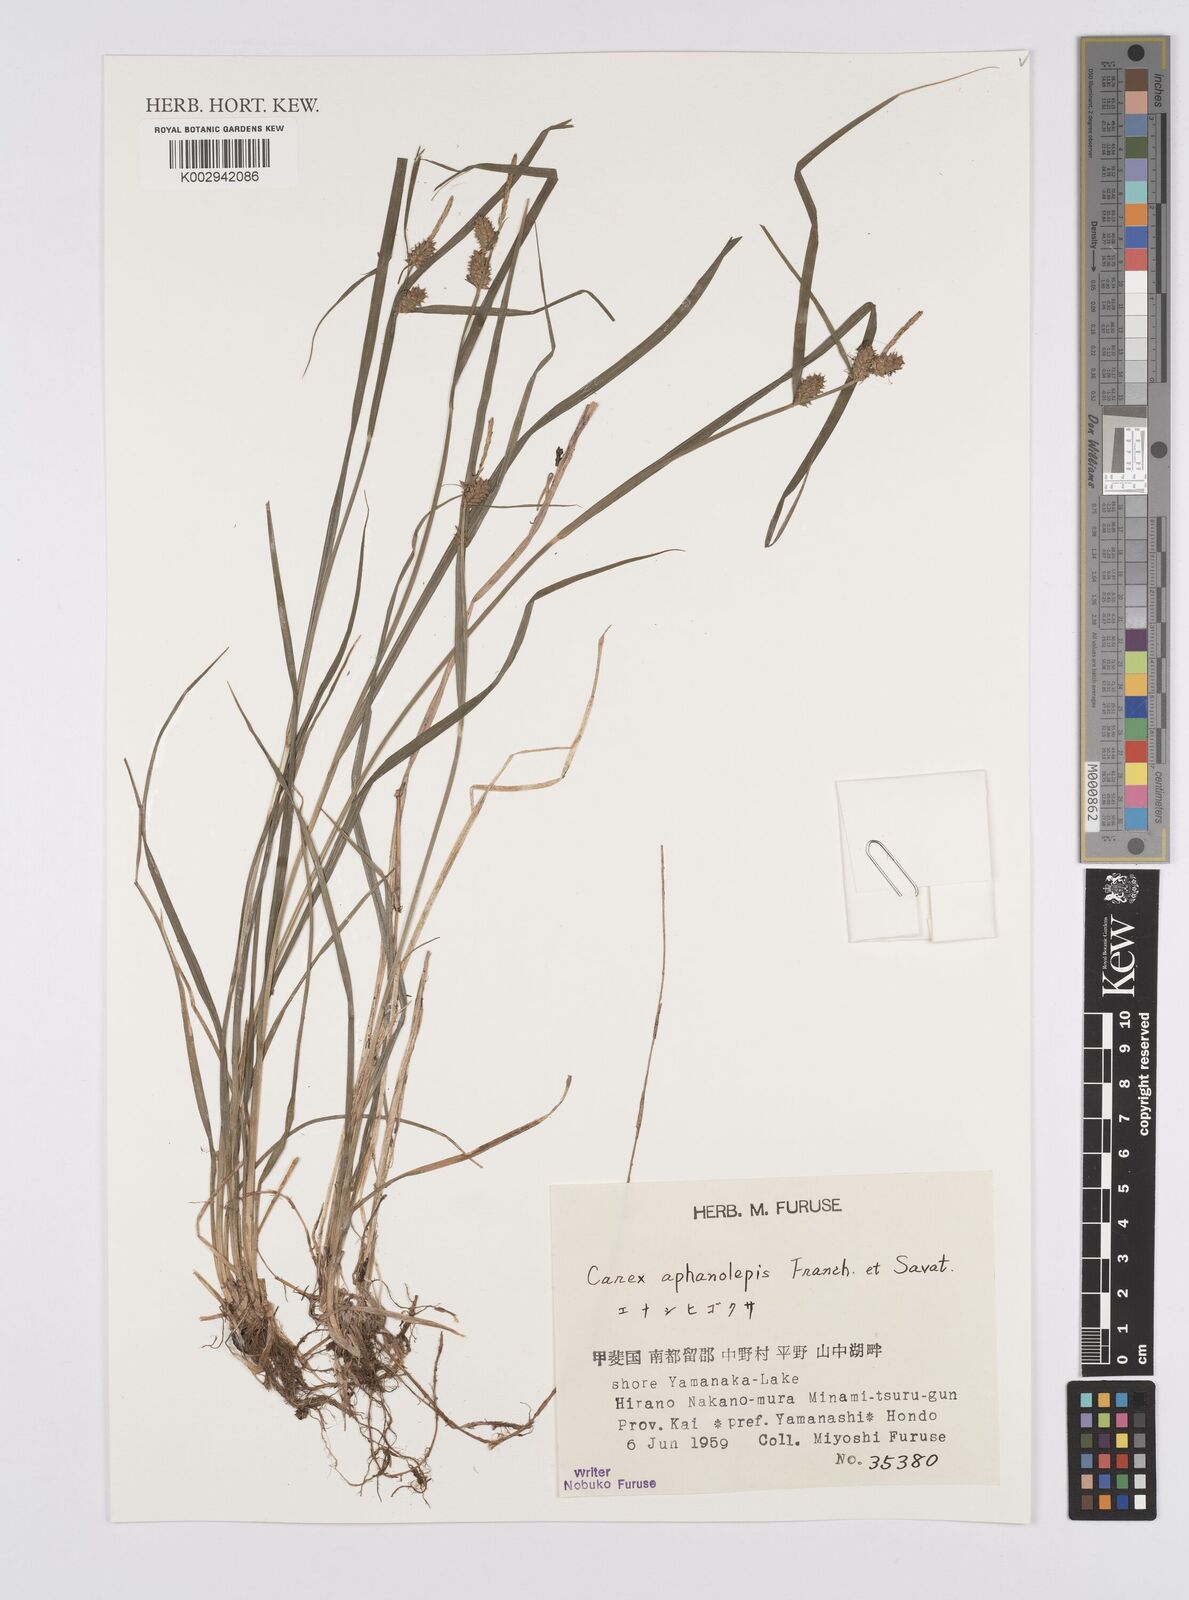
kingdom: Plantae
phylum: Tracheophyta
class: Liliopsida
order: Poales
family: Cyperaceae
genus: Carex
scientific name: Carex japonica
